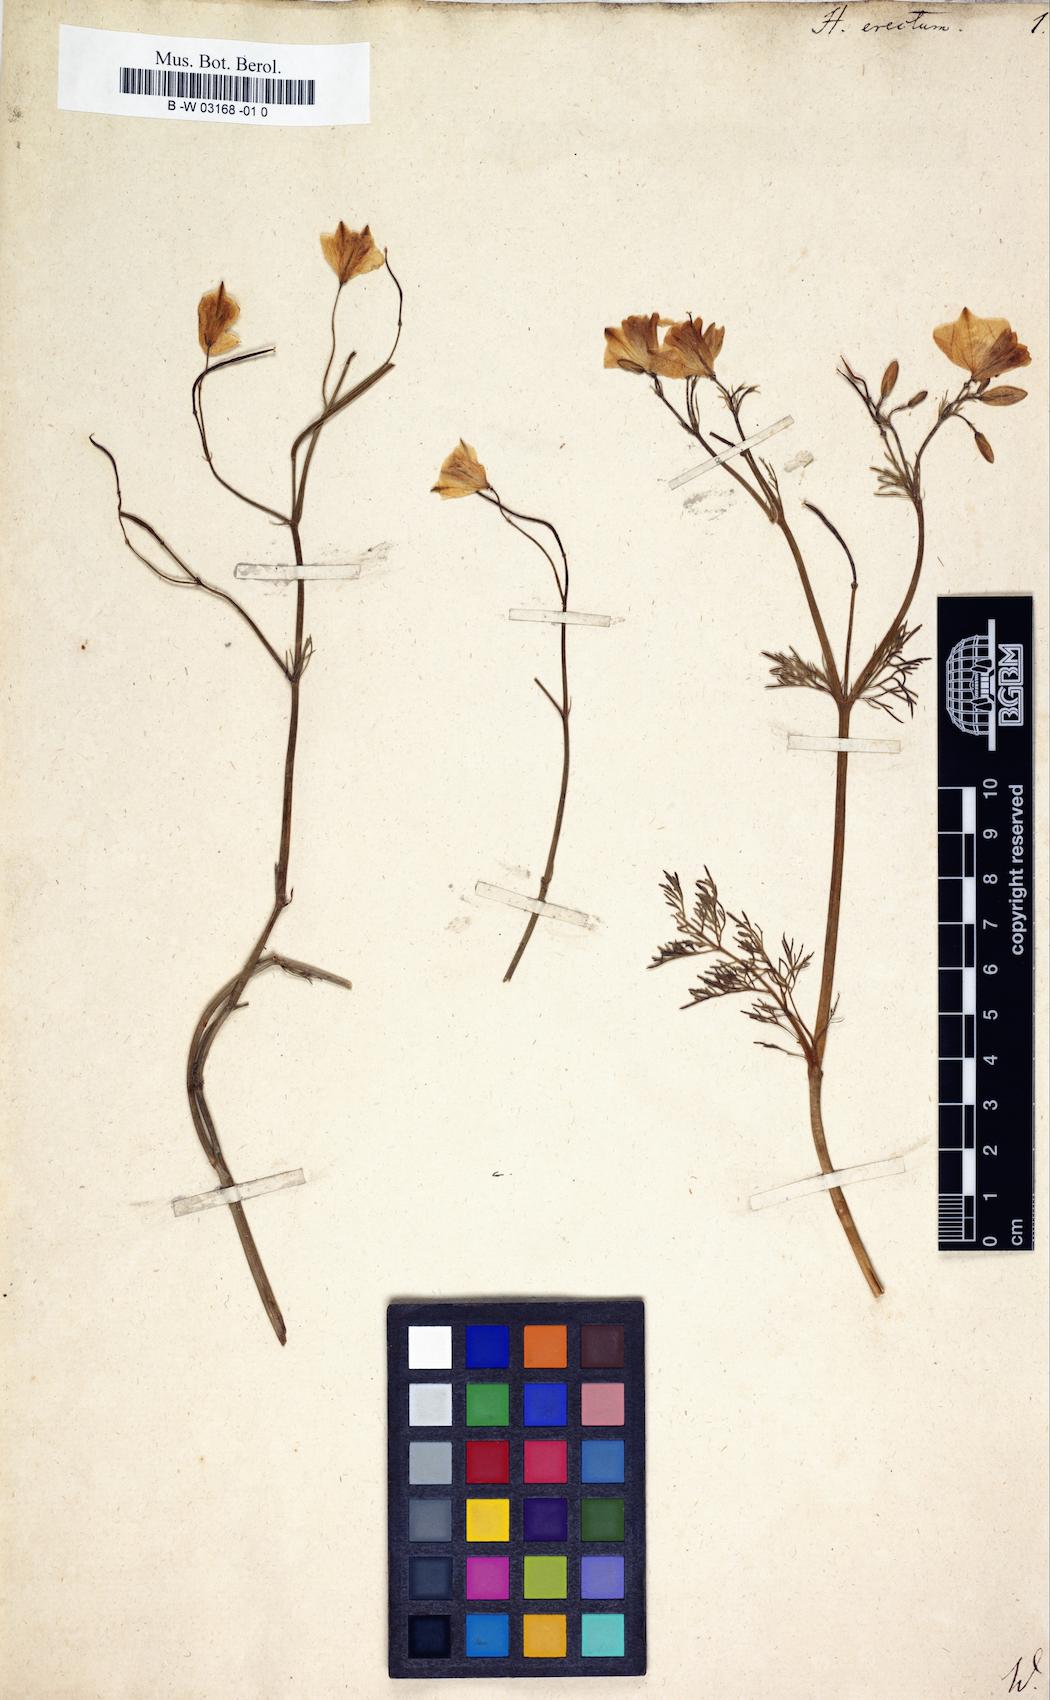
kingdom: Plantae
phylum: Tracheophyta
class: Magnoliopsida
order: Ranunculales
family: Papaveraceae
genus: Hypecoum
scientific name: Hypecoum erectum
